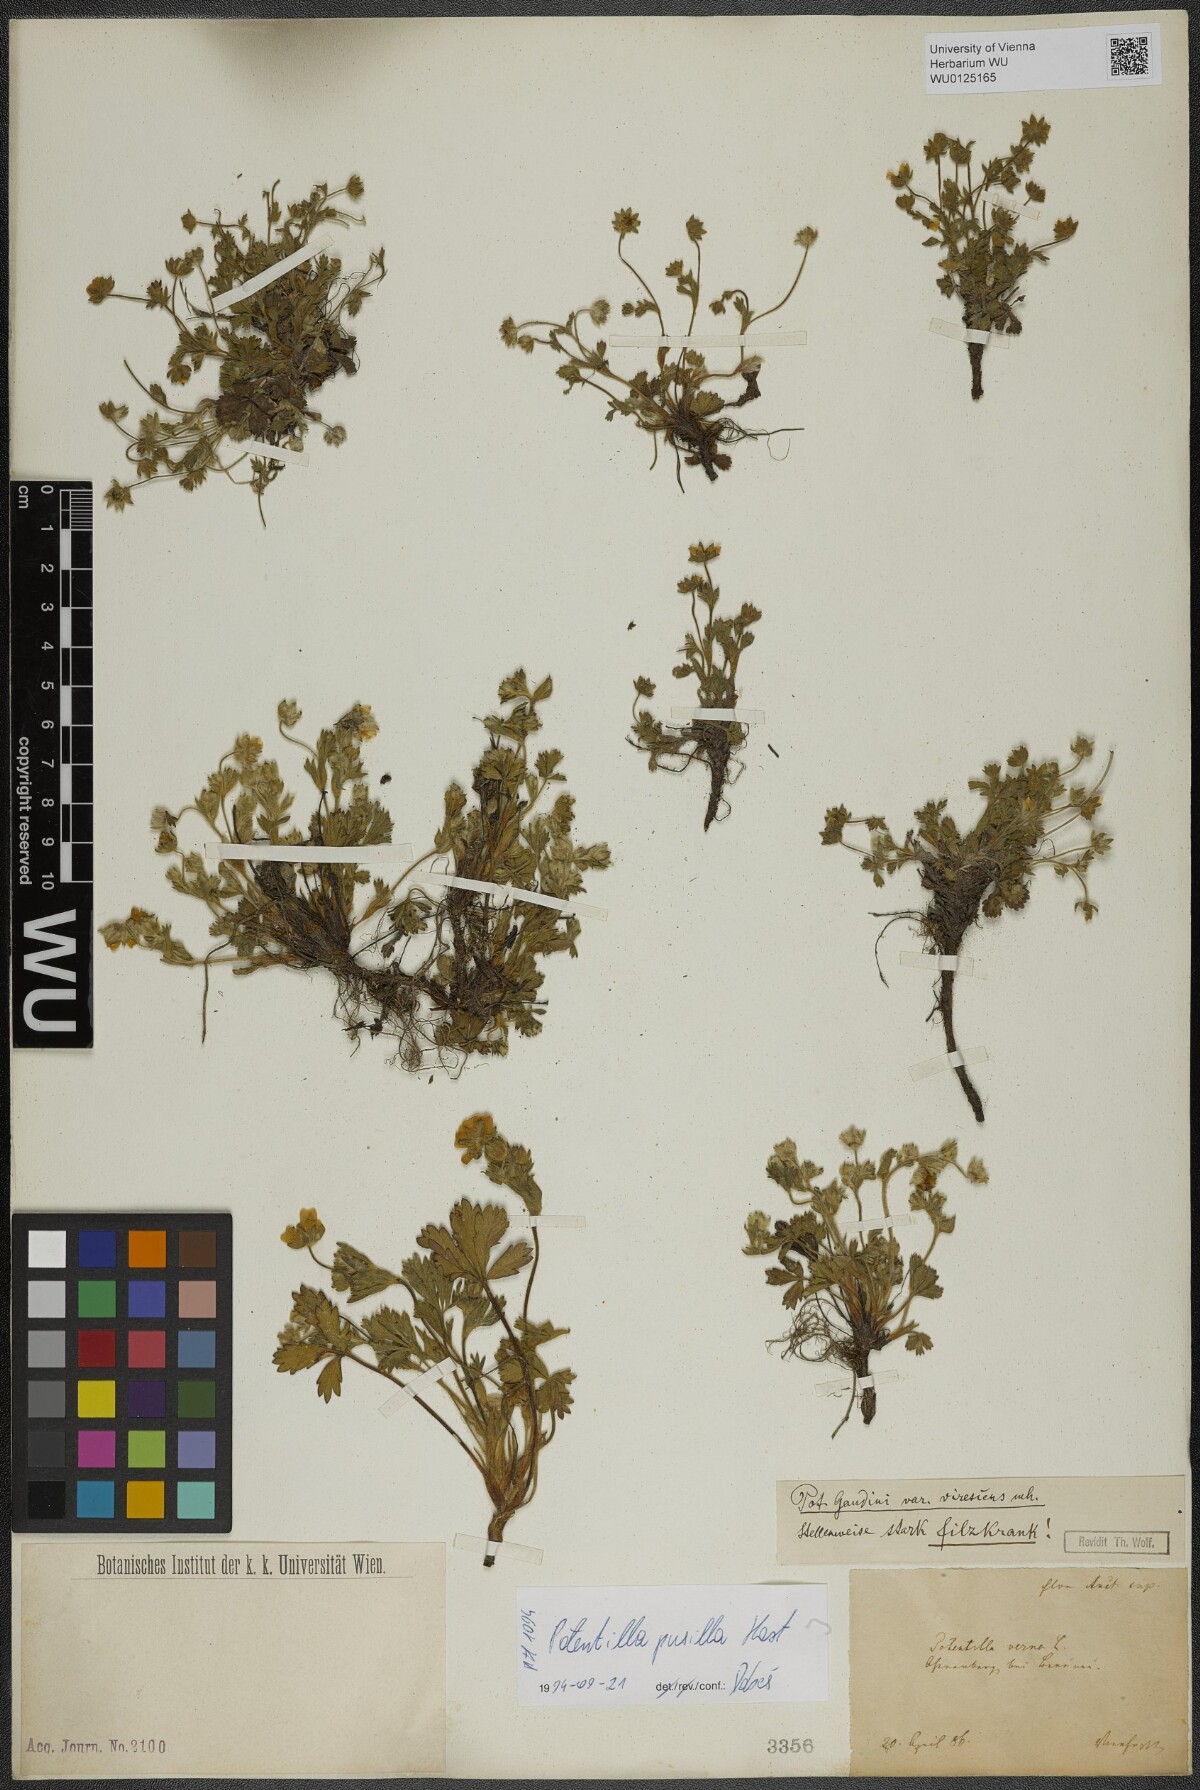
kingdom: Plantae
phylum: Tracheophyta
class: Magnoliopsida
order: Rosales
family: Rosaceae
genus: Potentilla
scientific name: Potentilla pusilla
